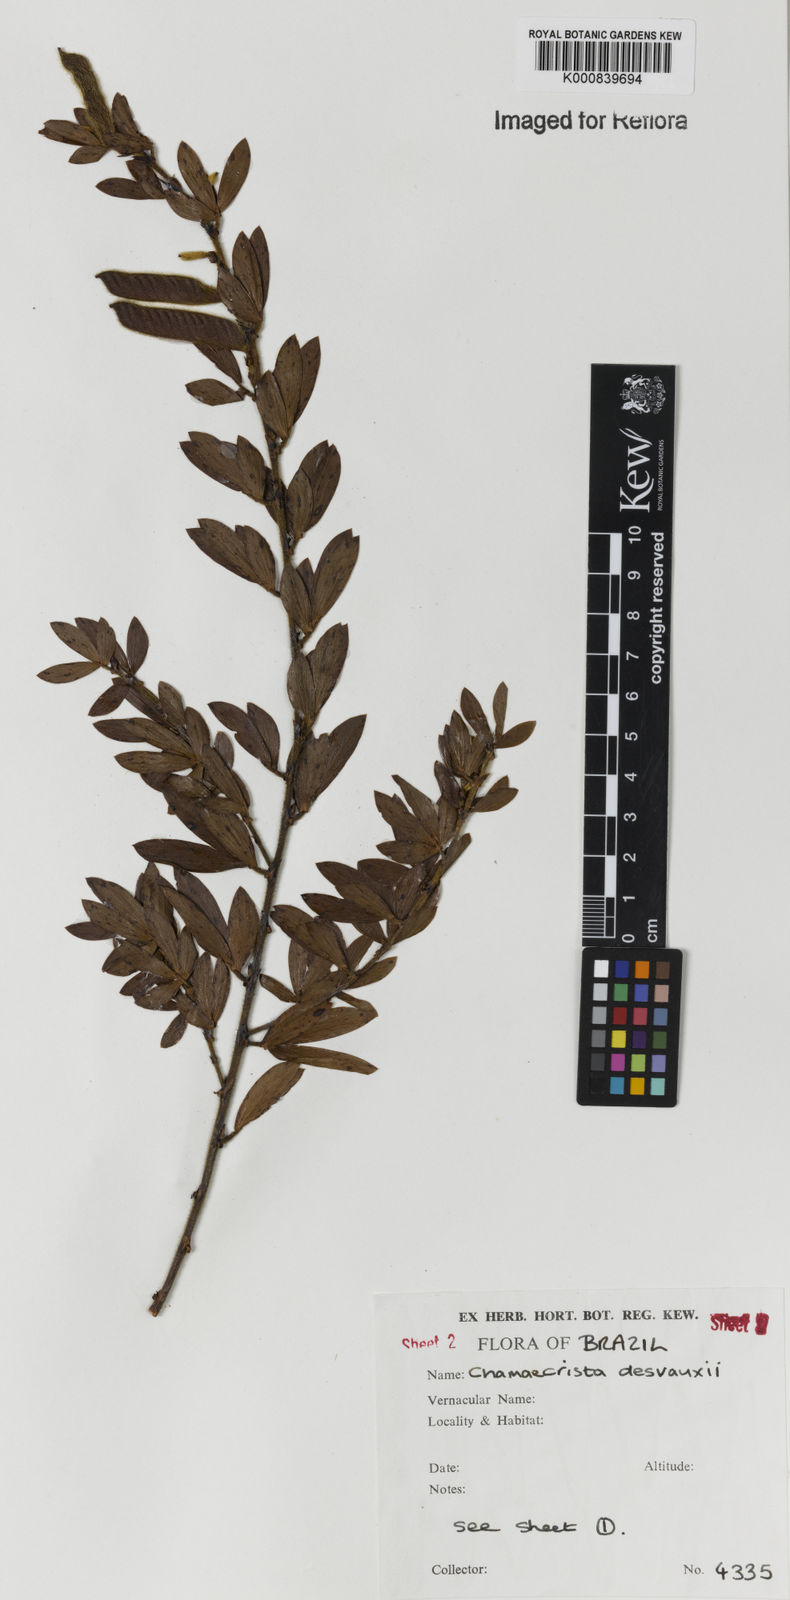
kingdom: Plantae
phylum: Tracheophyta
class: Magnoliopsida
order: Fabales
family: Fabaceae
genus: Chamaecrista
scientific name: Chamaecrista desvauxii
